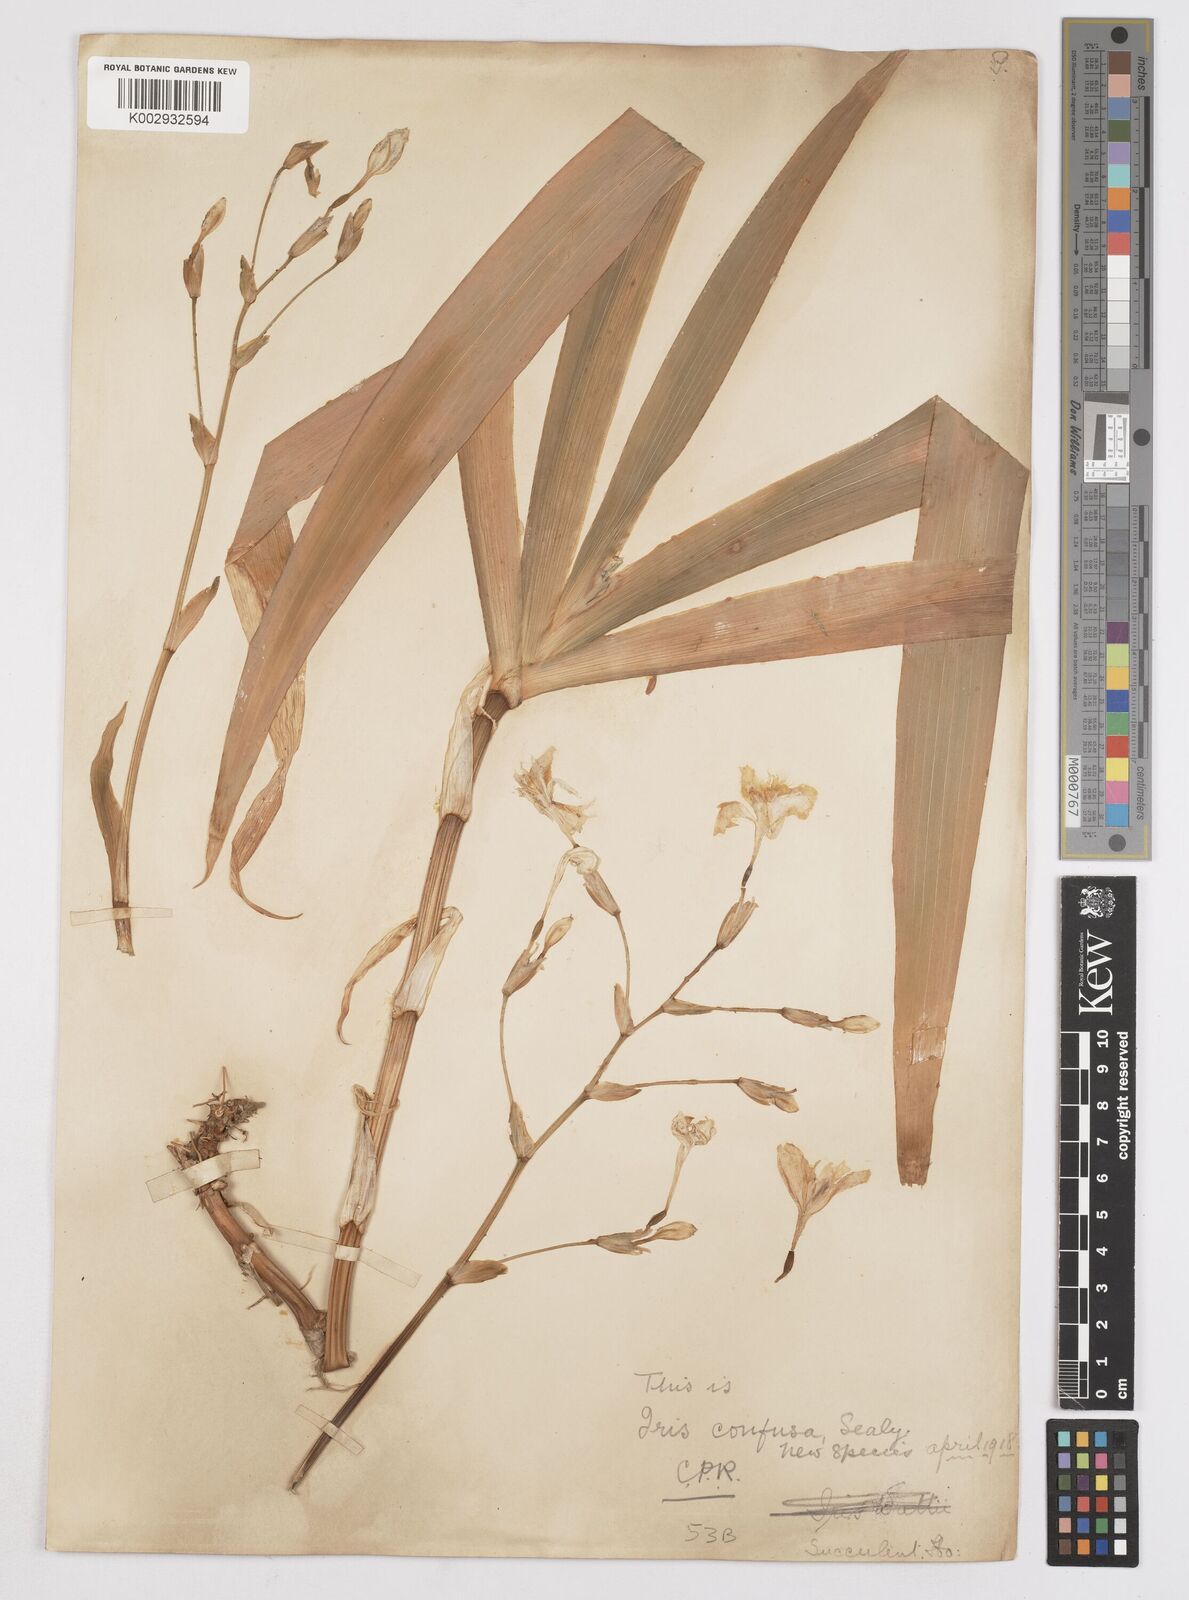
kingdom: Plantae
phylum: Tracheophyta
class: Liliopsida
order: Asparagales
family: Iridaceae
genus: Iris
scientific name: Iris wattii
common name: Fan-shape iris
